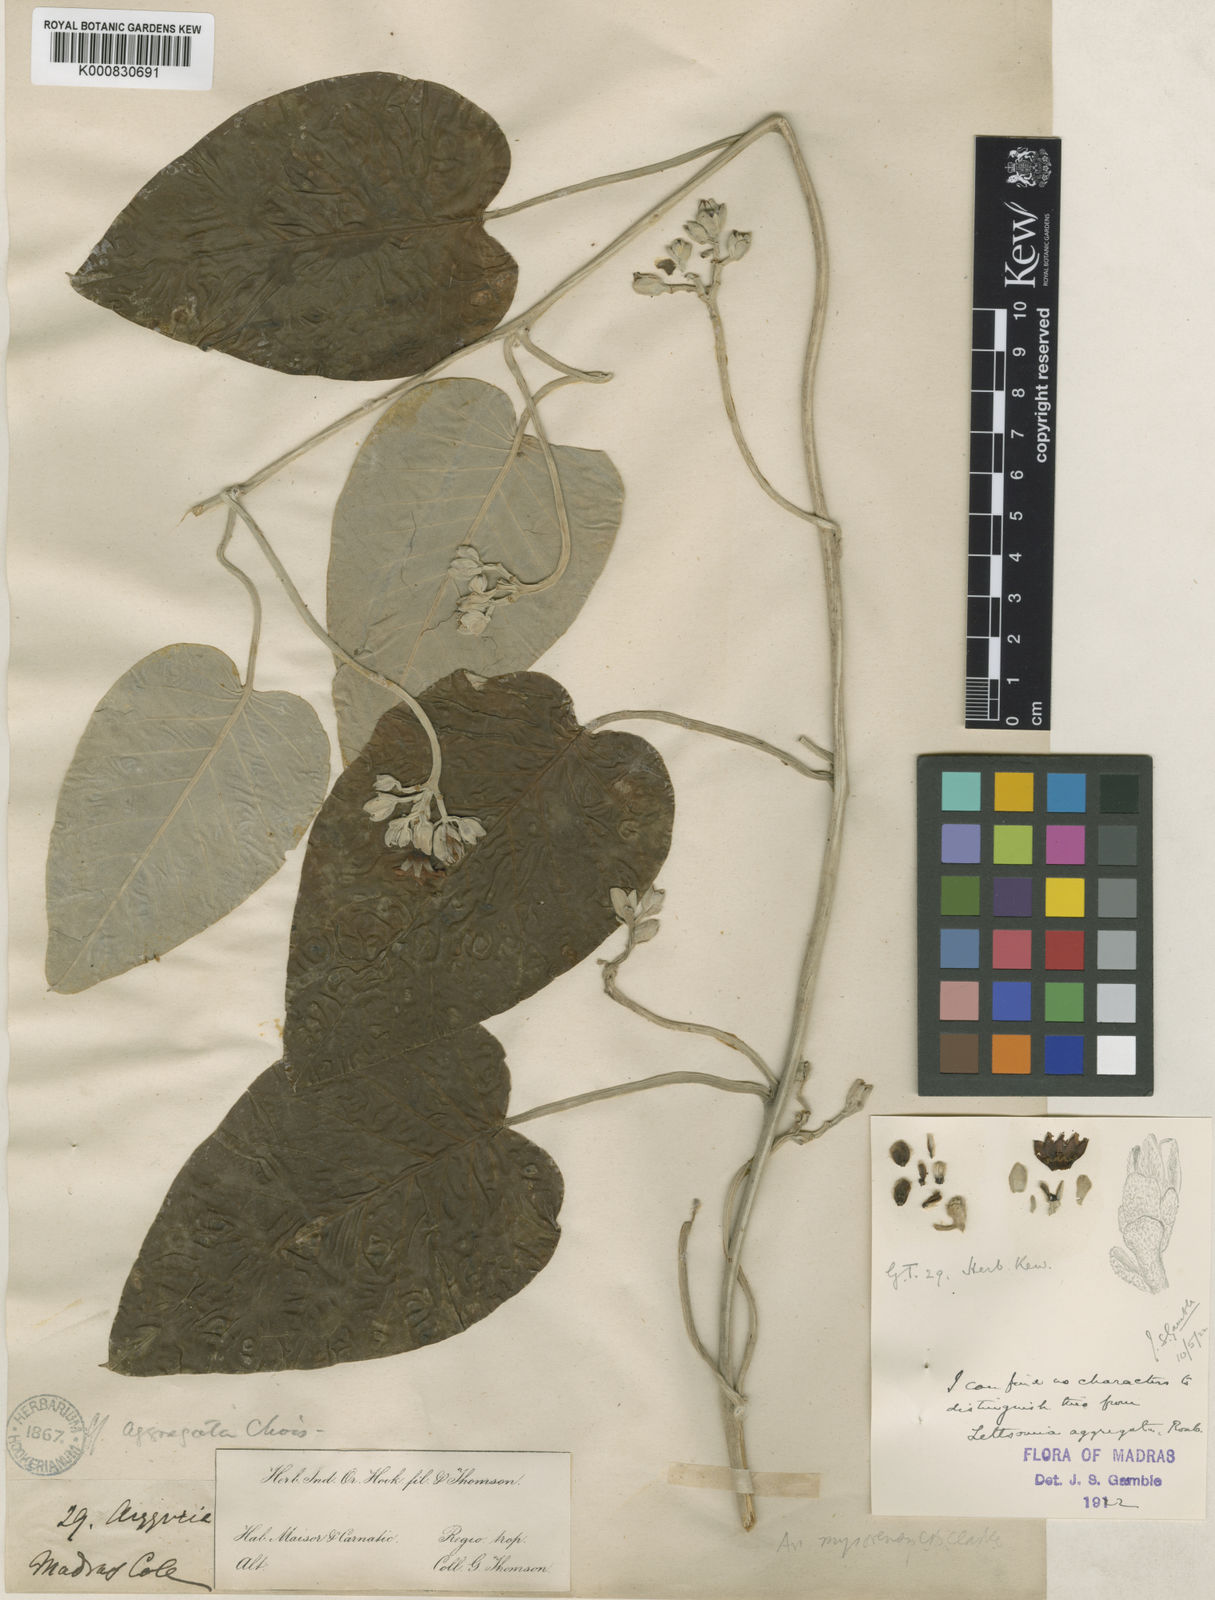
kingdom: Plantae
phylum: Tracheophyta
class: Magnoliopsida
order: Solanales
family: Convolvulaceae
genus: Argyreia
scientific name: Argyreia
